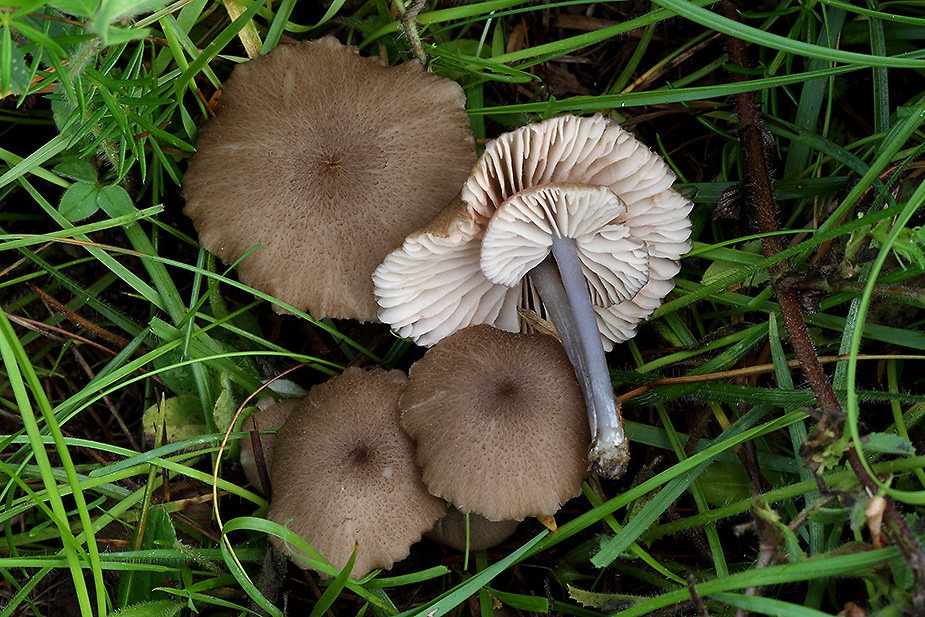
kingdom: Fungi
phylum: Basidiomycota
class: Agaricomycetes
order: Agaricales
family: Entolomataceae
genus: Entoloma
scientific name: Entoloma isborscanum
